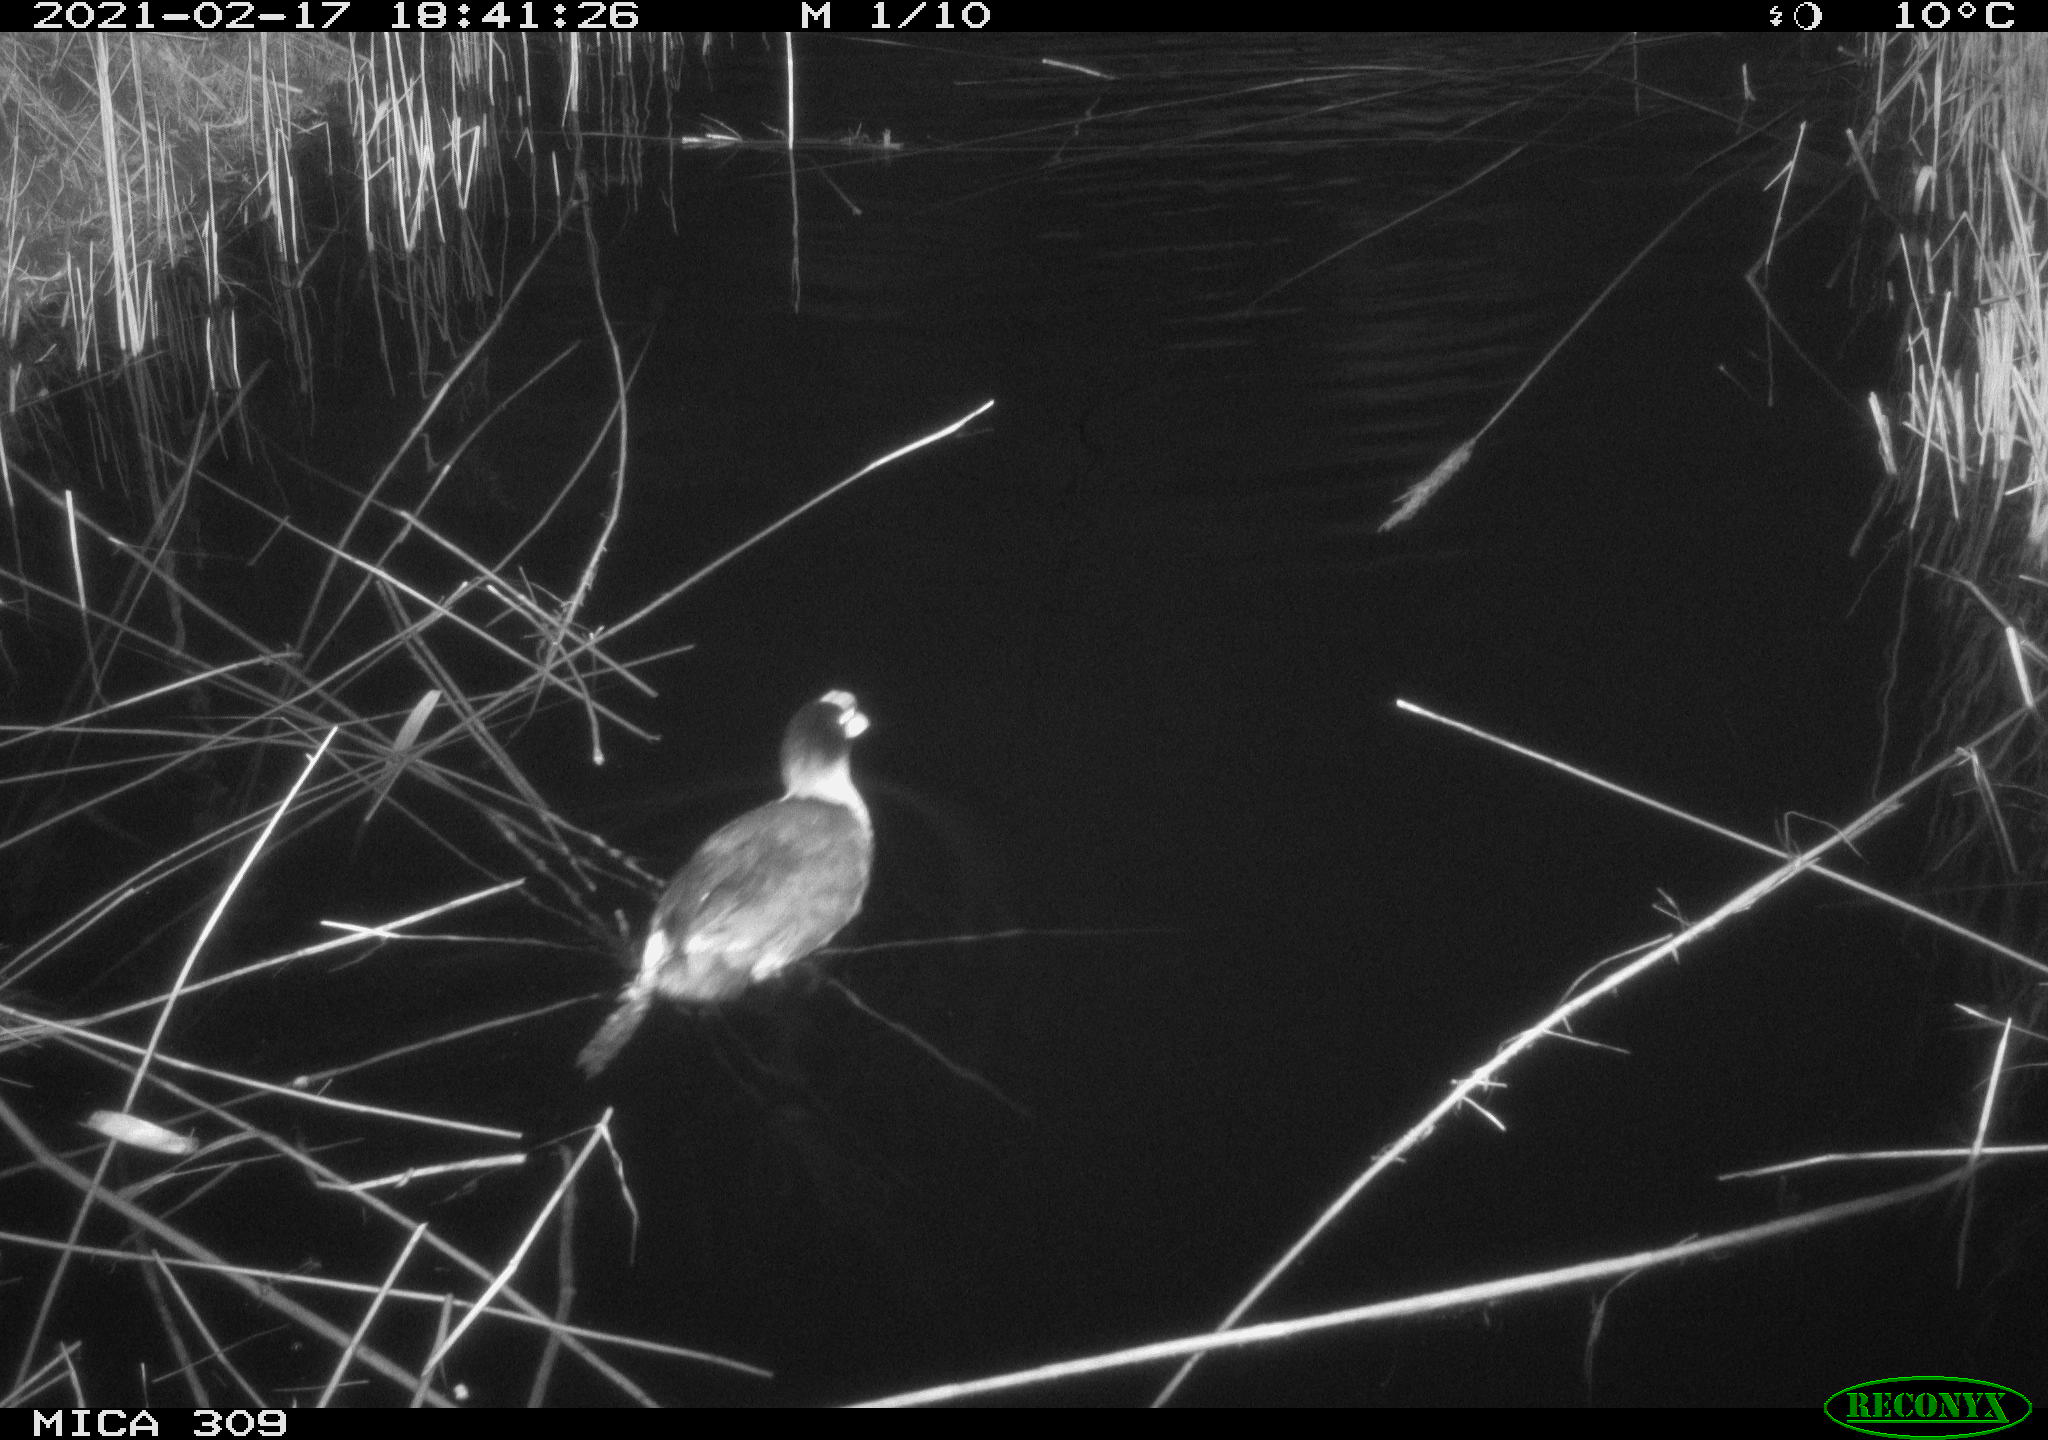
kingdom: Animalia
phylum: Chordata
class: Aves
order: Gruiformes
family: Rallidae
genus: Fulica
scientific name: Fulica atra
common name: Eurasian coot
